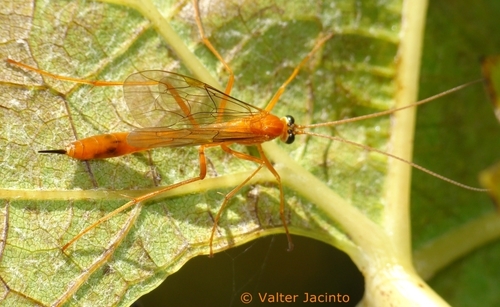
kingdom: Animalia
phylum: Arthropoda
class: Insecta
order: Hymenoptera
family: Ichneumonidae
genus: Netelia
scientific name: Netelia
